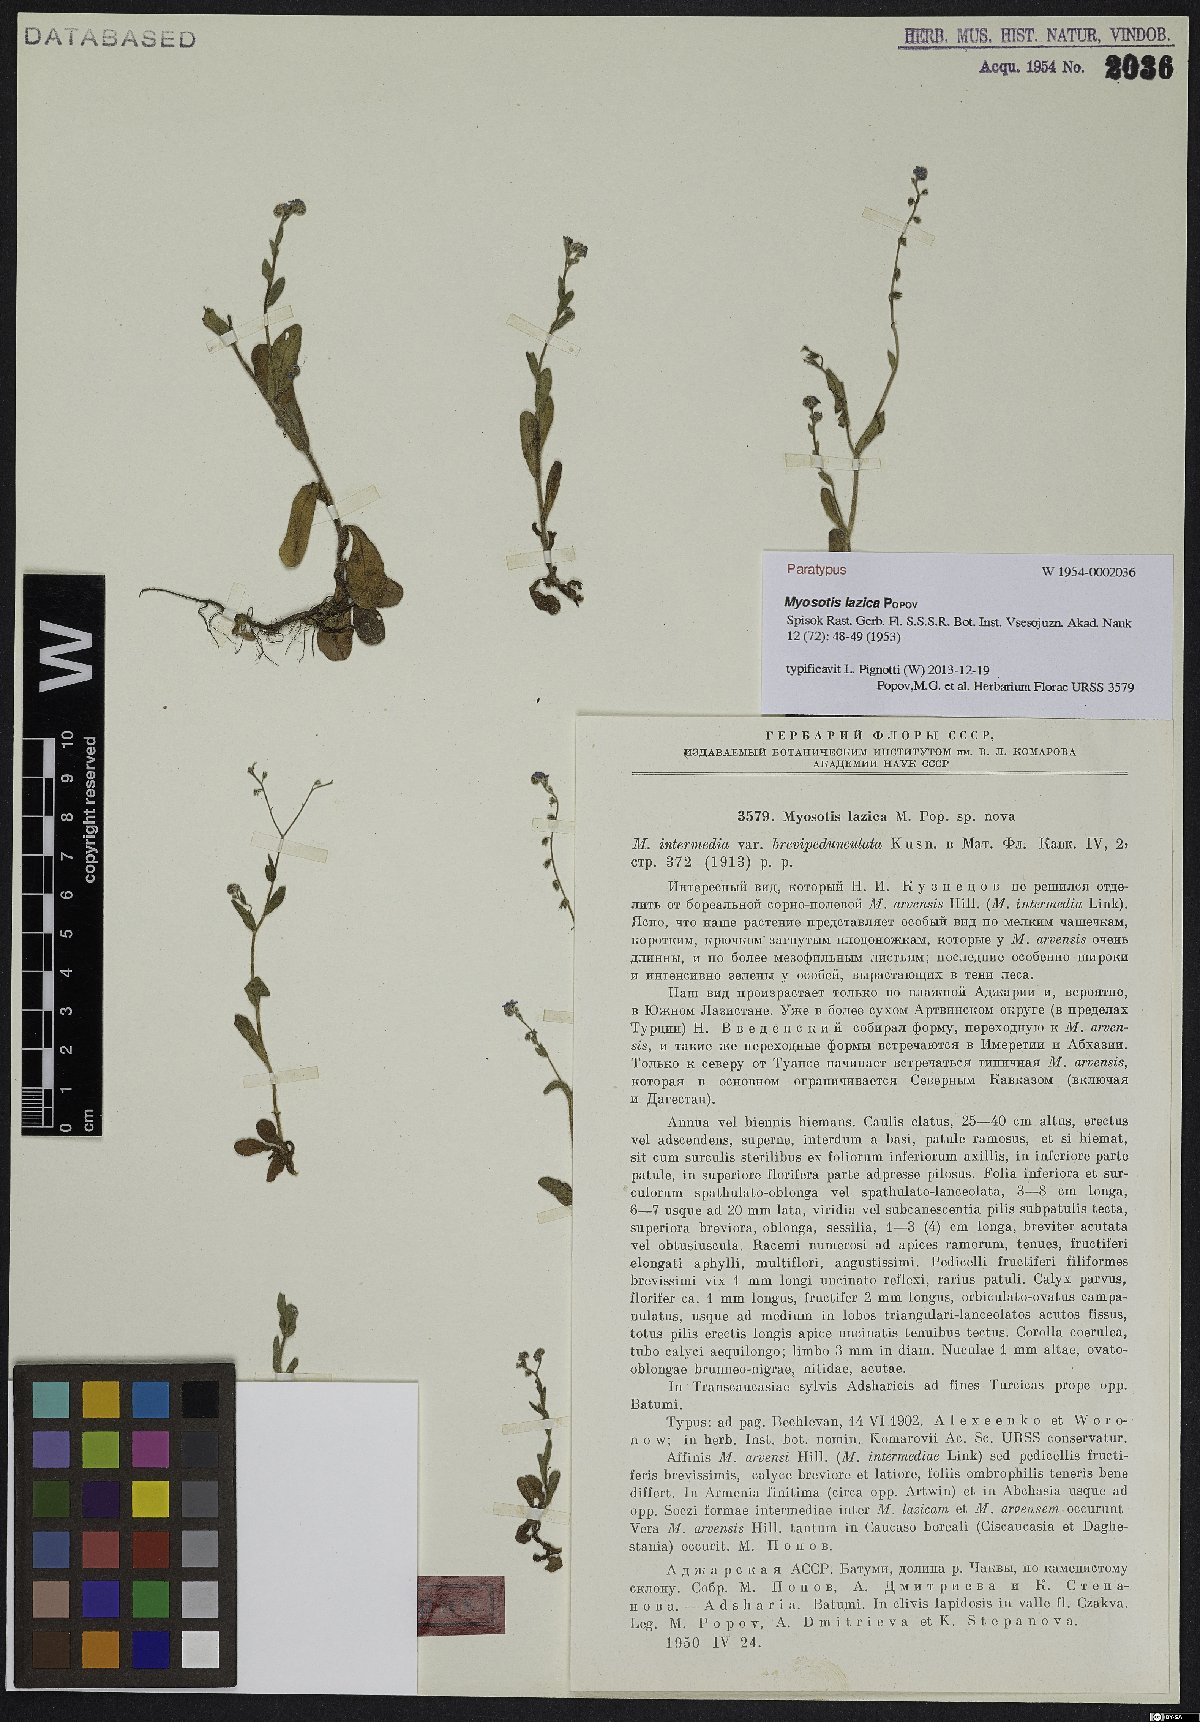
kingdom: Plantae
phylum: Tracheophyta
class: Magnoliopsida
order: Boraginales
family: Boraginaceae
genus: Myosotis
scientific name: Myosotis lazica
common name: Lazetian forget-me-not
